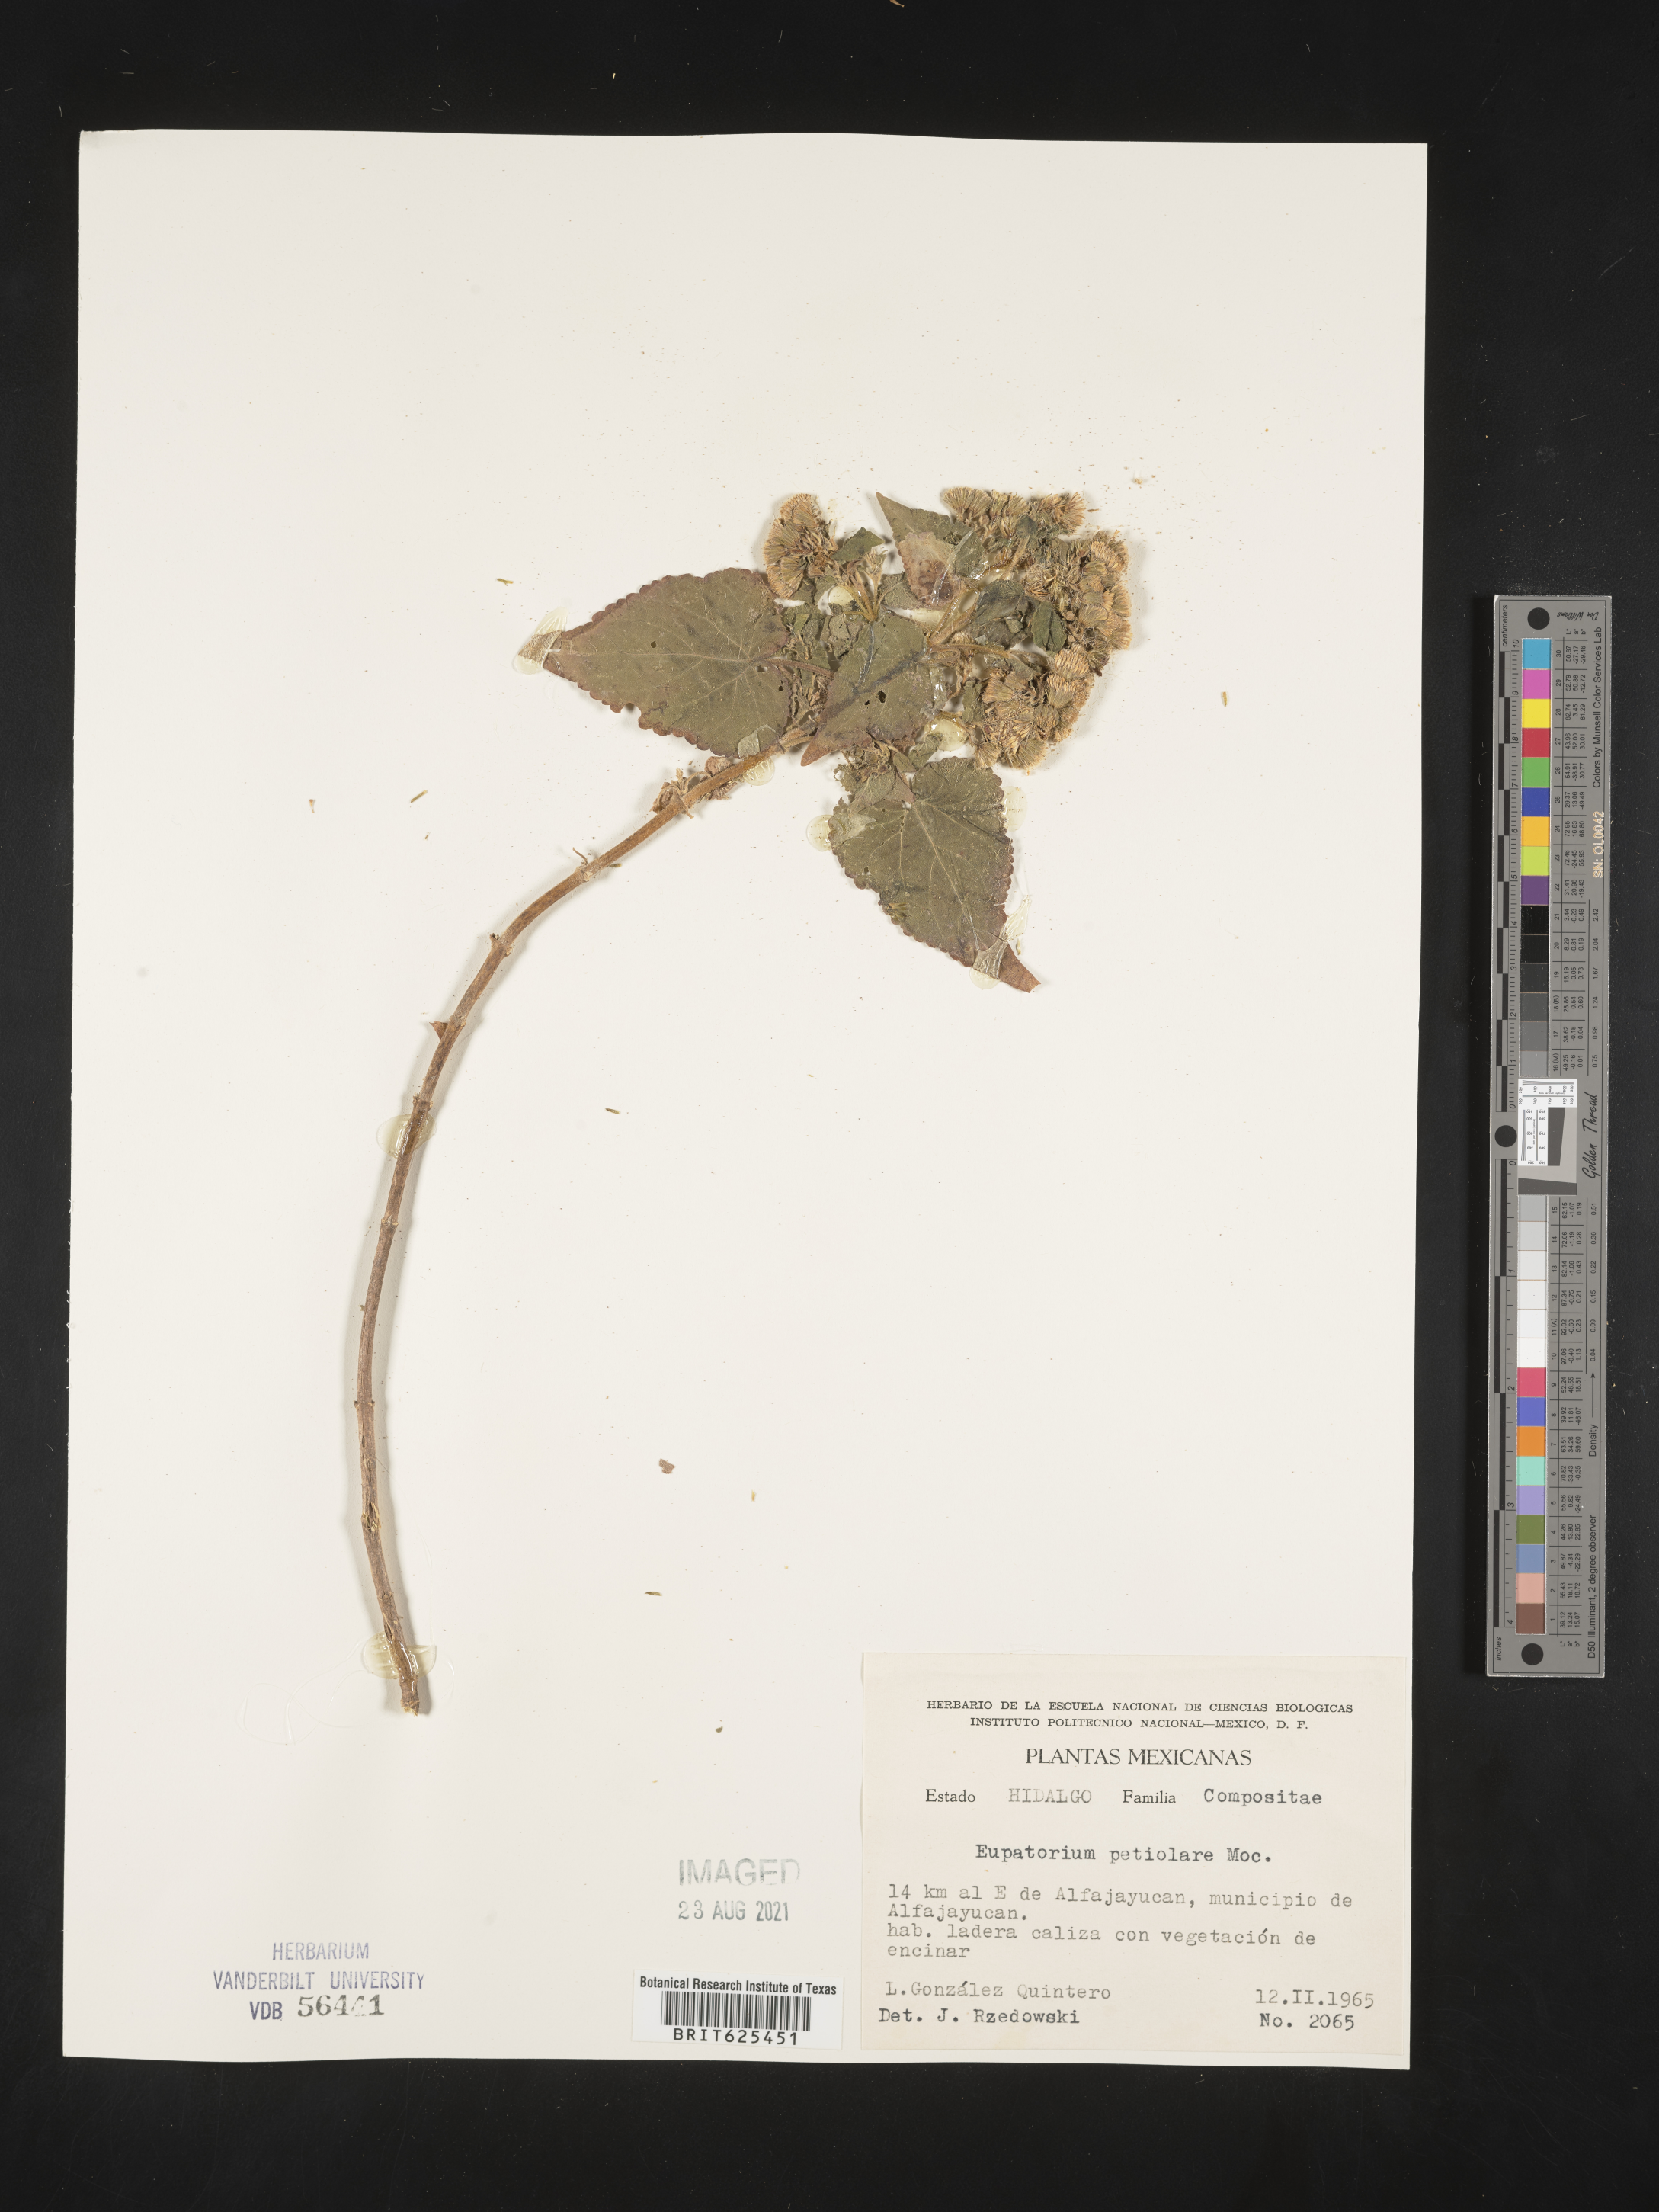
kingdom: Plantae
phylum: Tracheophyta
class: Magnoliopsida
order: Asterales
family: Asteraceae
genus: Eupatorium
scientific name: Eupatorium
